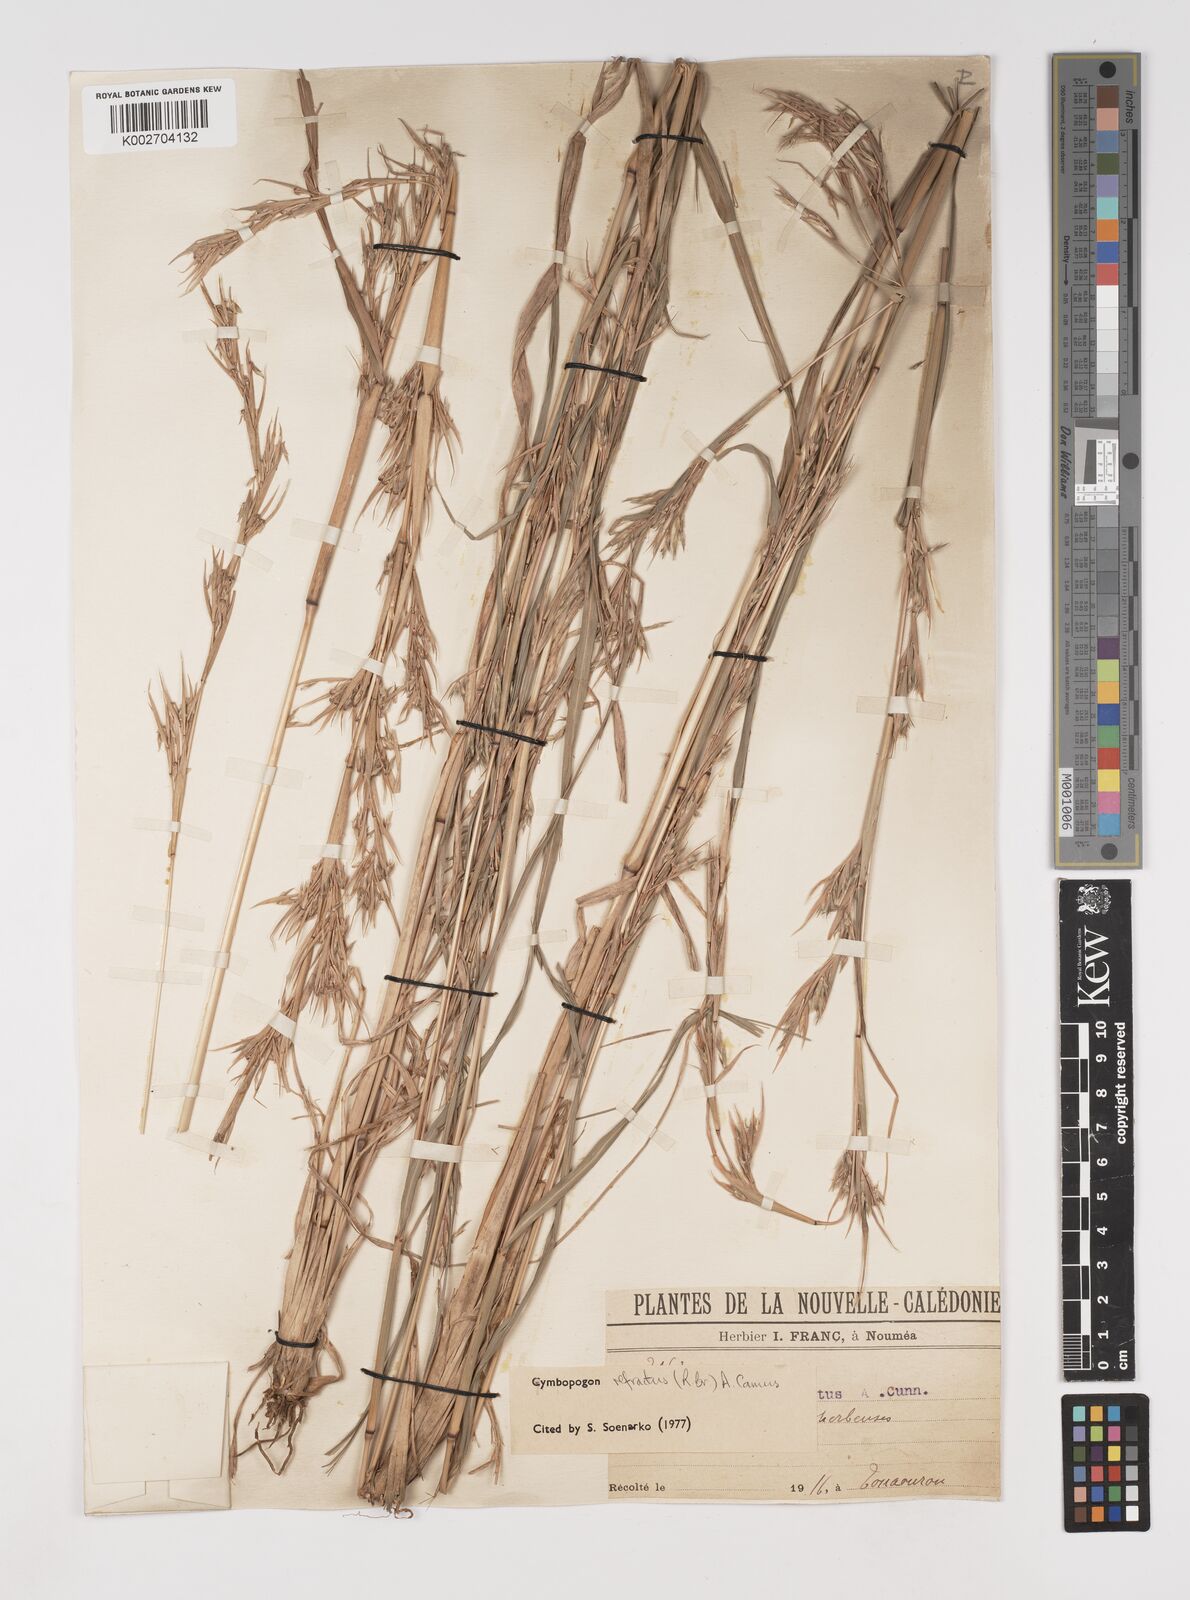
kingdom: Plantae
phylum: Tracheophyta
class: Liliopsida
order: Poales
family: Poaceae
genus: Cymbopogon
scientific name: Cymbopogon refractus
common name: Barbwire grass
